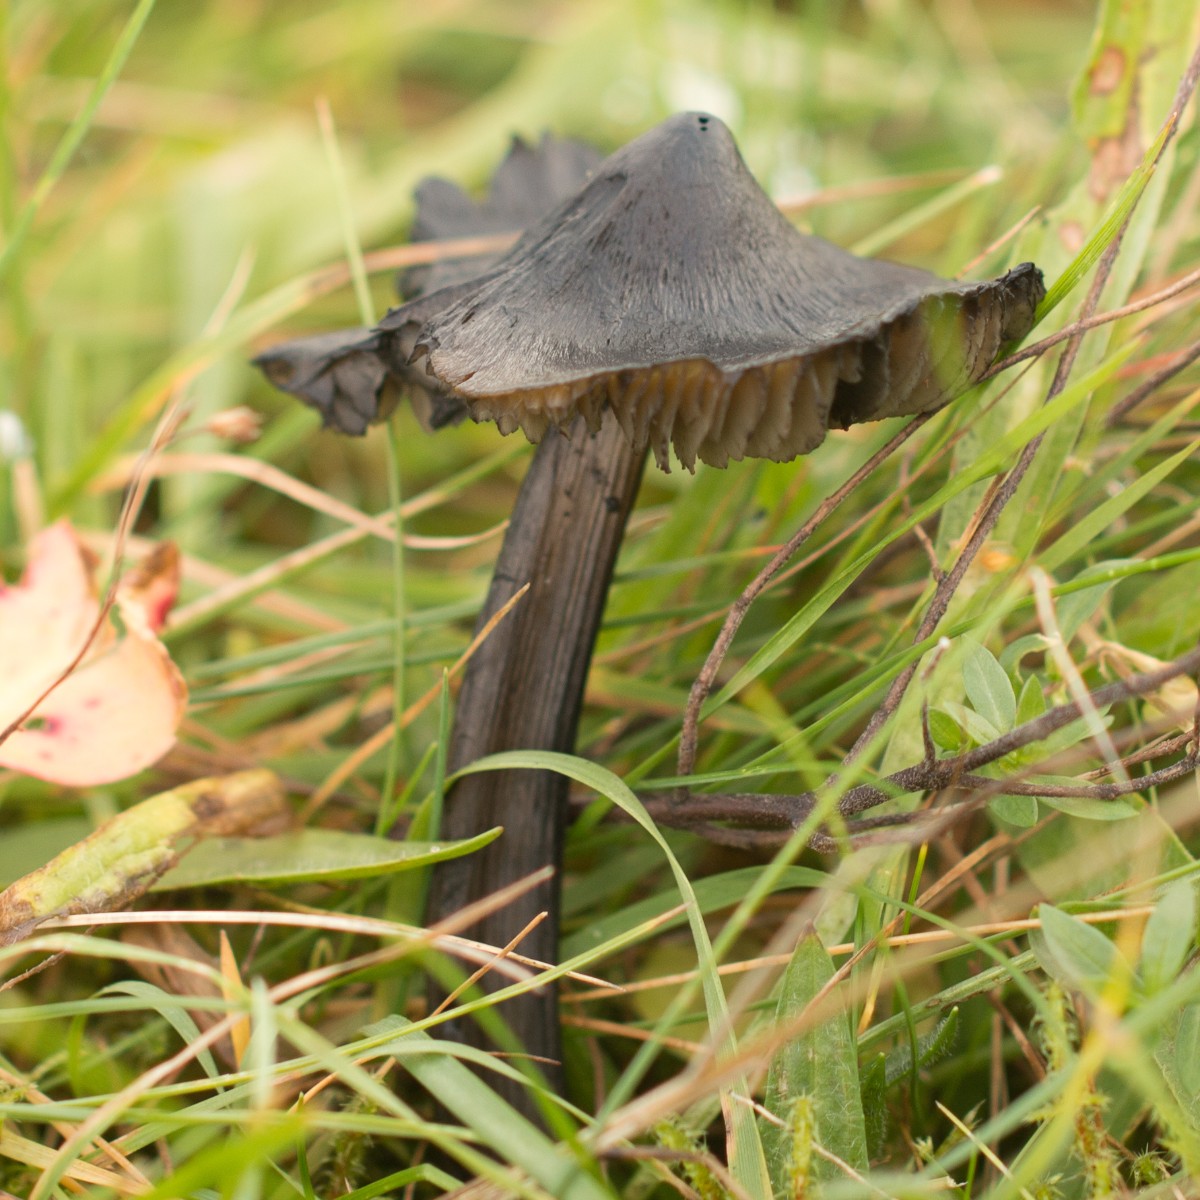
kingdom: Fungi
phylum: Basidiomycota
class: Agaricomycetes
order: Agaricales
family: Hygrophoraceae
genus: Hygrocybe
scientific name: Hygrocybe conica
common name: kegle-vokshat
